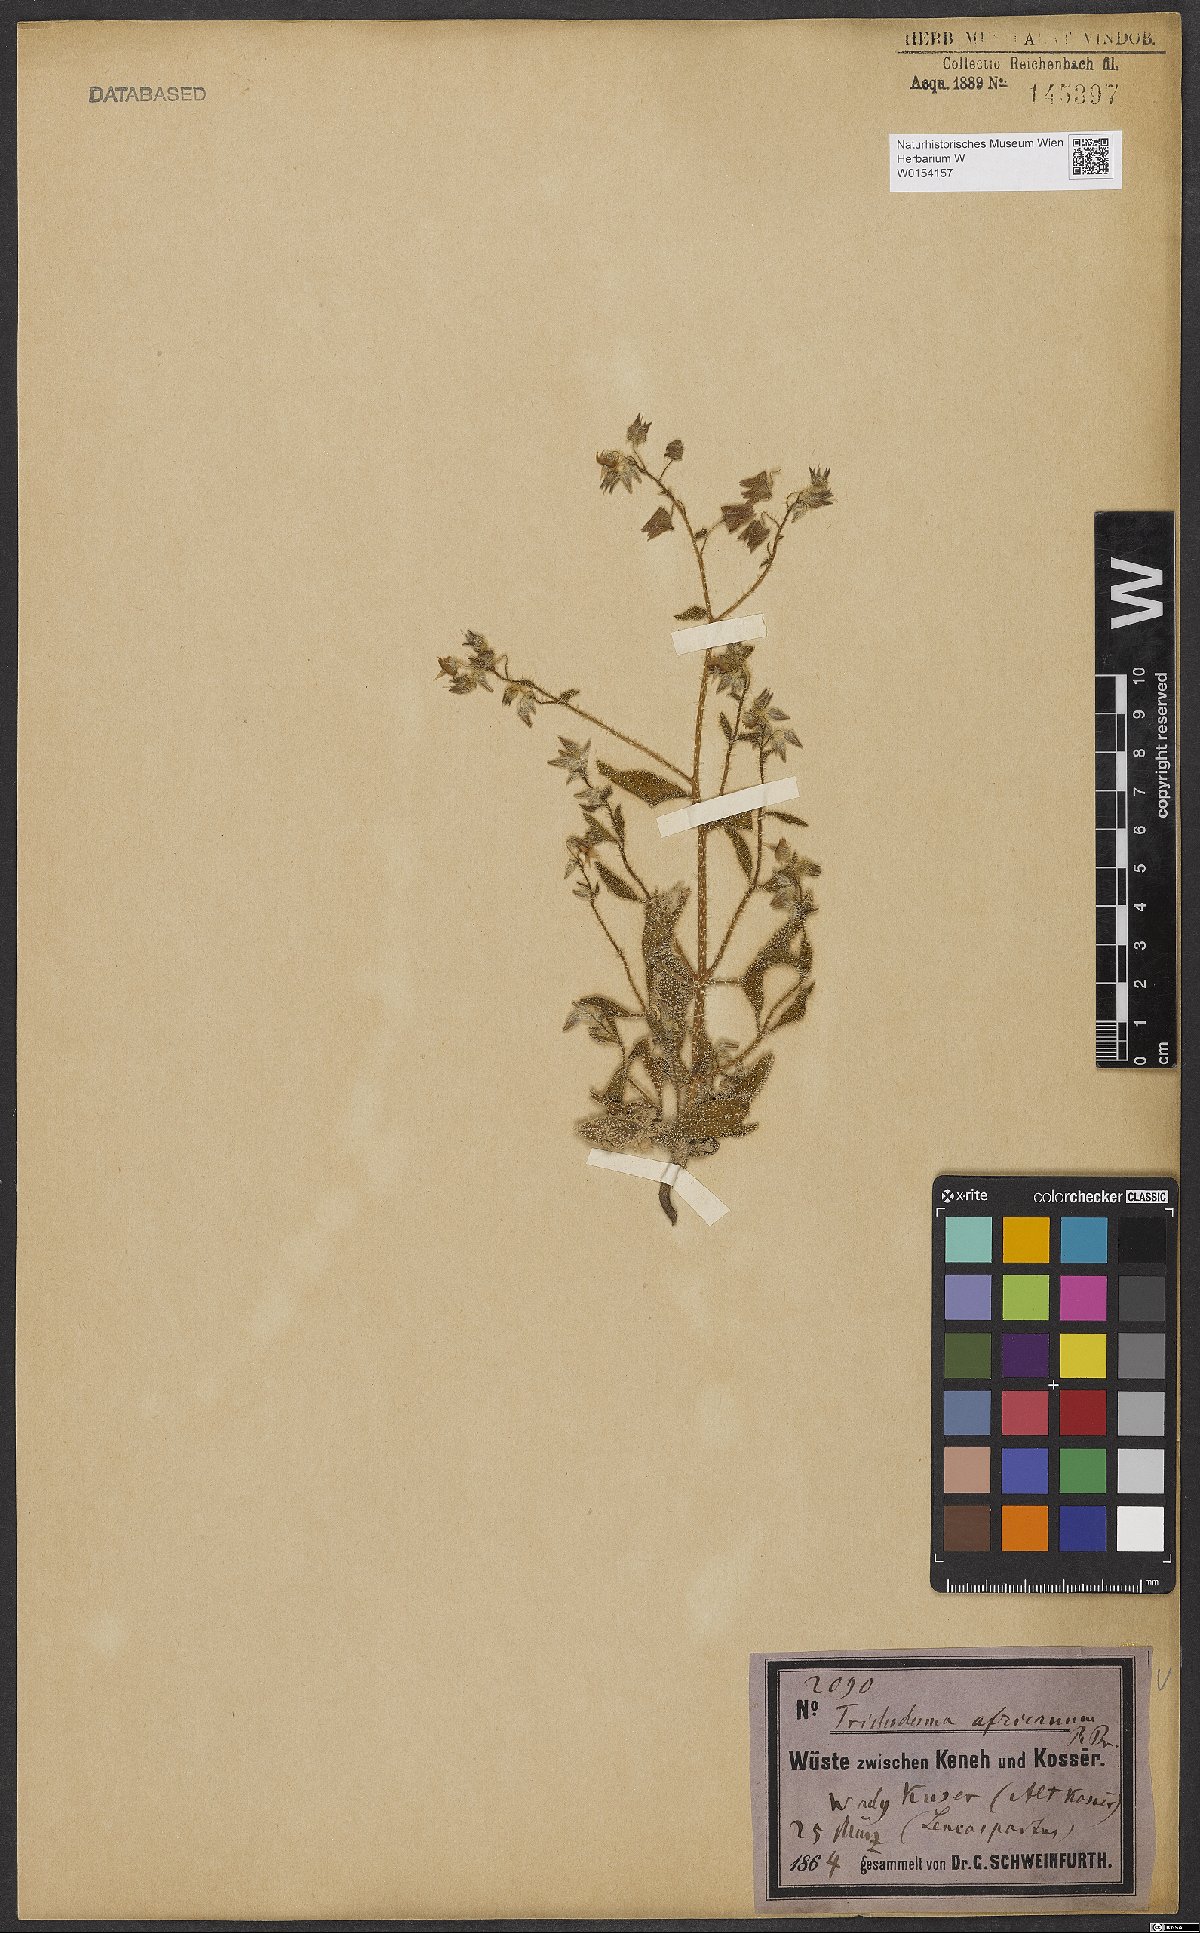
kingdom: Plantae
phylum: Tracheophyta
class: Magnoliopsida
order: Boraginales
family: Boraginaceae
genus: Trichodesma
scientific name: Trichodesma africanum
